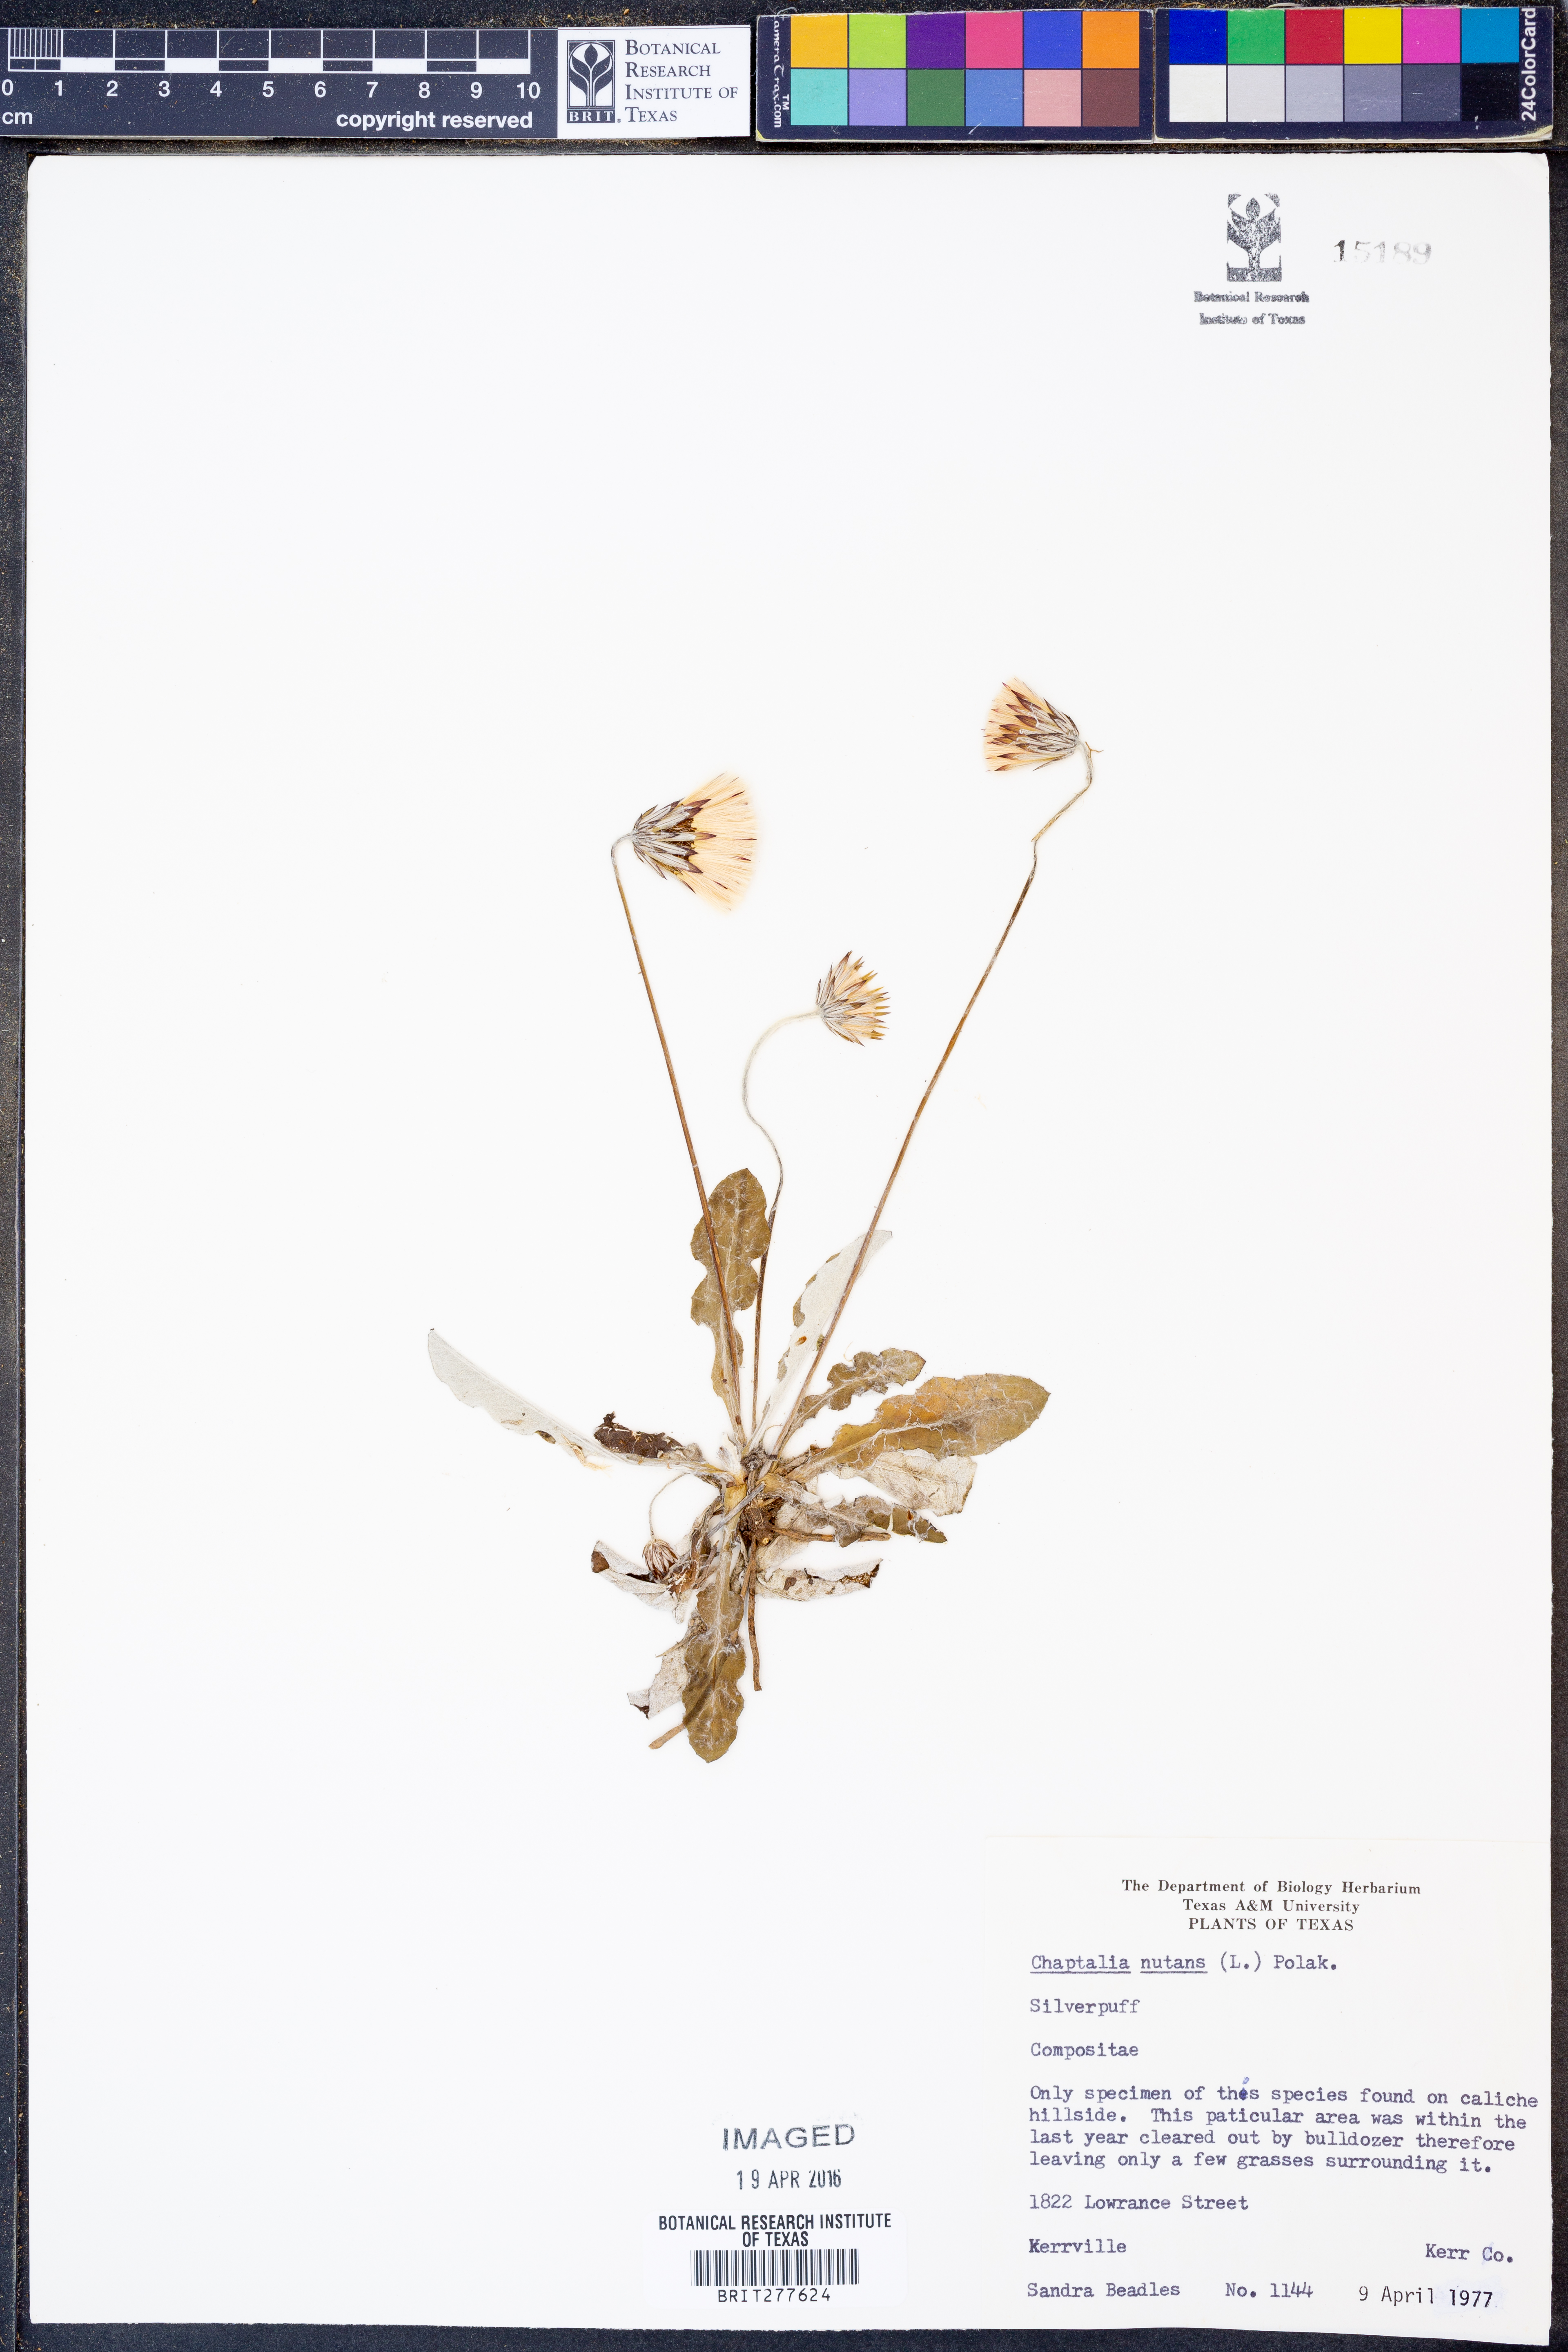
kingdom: Plantae
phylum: Tracheophyta
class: Magnoliopsida
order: Asterales
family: Asteraceae
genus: Chaptalia
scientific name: Chaptalia nutans
